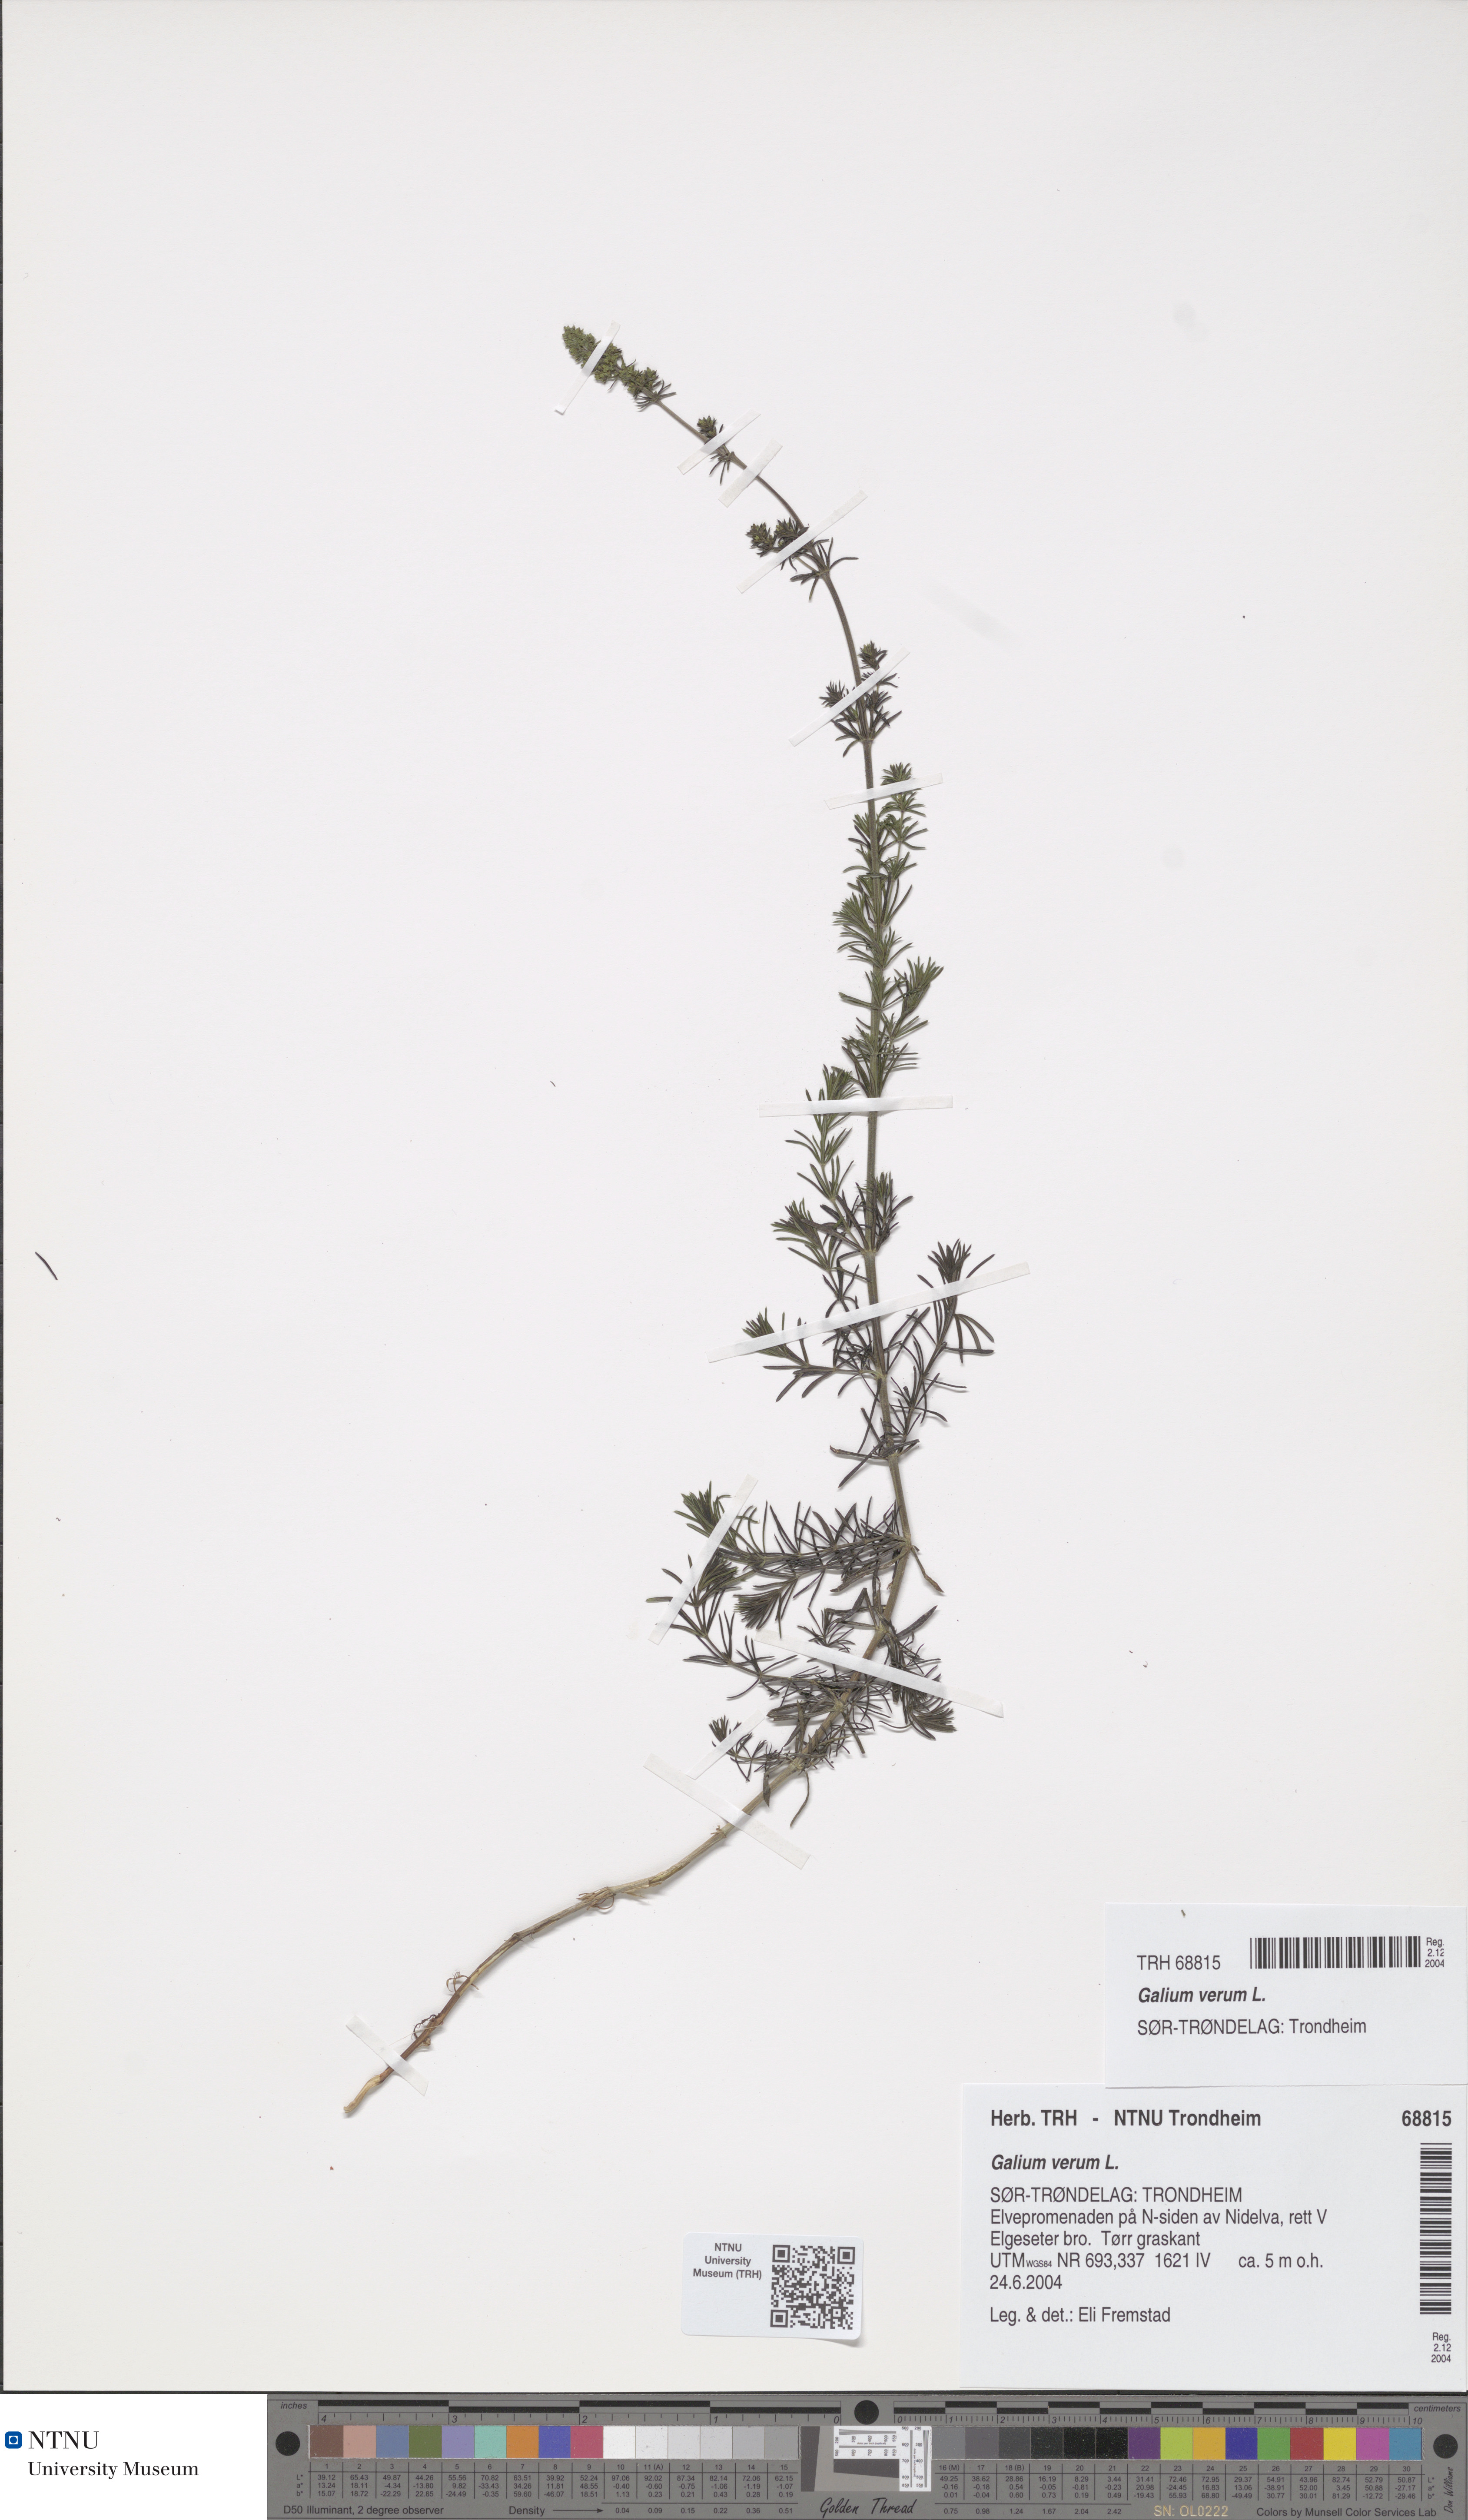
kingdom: Plantae
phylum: Tracheophyta
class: Magnoliopsida
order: Gentianales
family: Rubiaceae
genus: Galium
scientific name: Galium verum
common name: Lady's bedstraw
